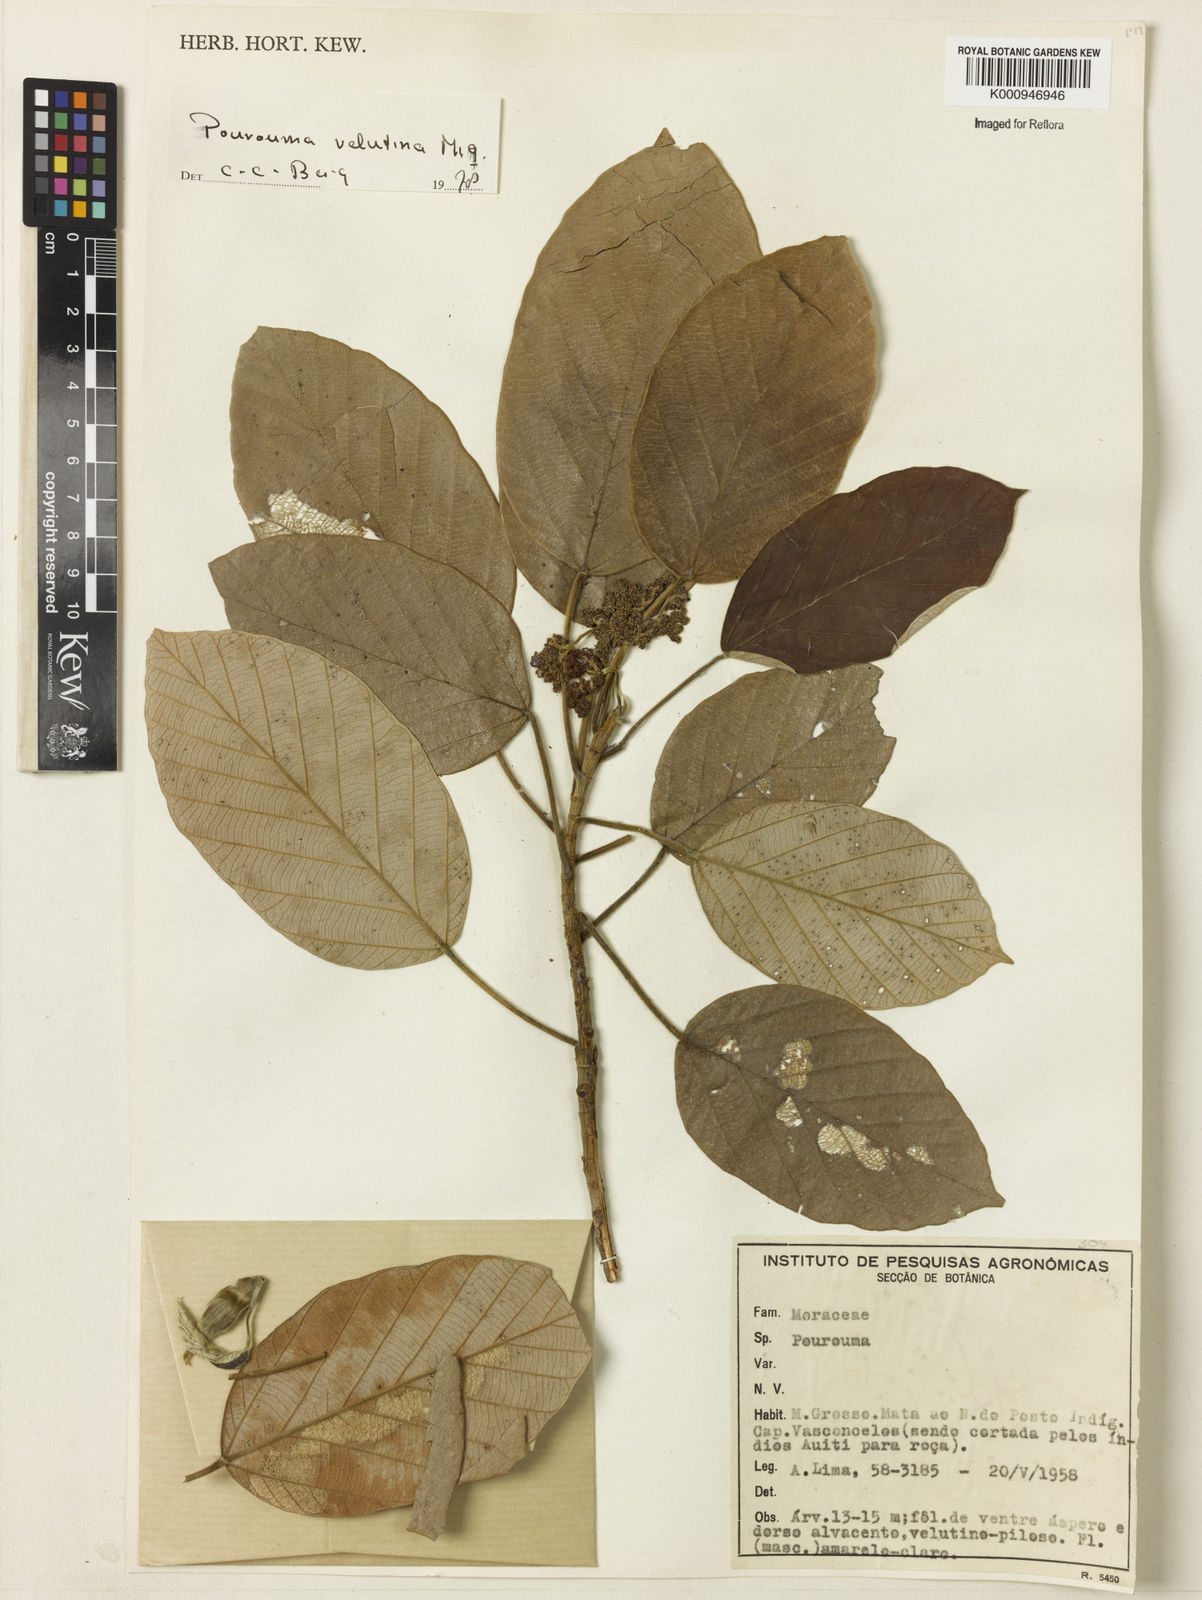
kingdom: Plantae
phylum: Tracheophyta
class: Magnoliopsida
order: Rosales
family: Urticaceae
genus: Pourouma
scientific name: Pourouma velutina
